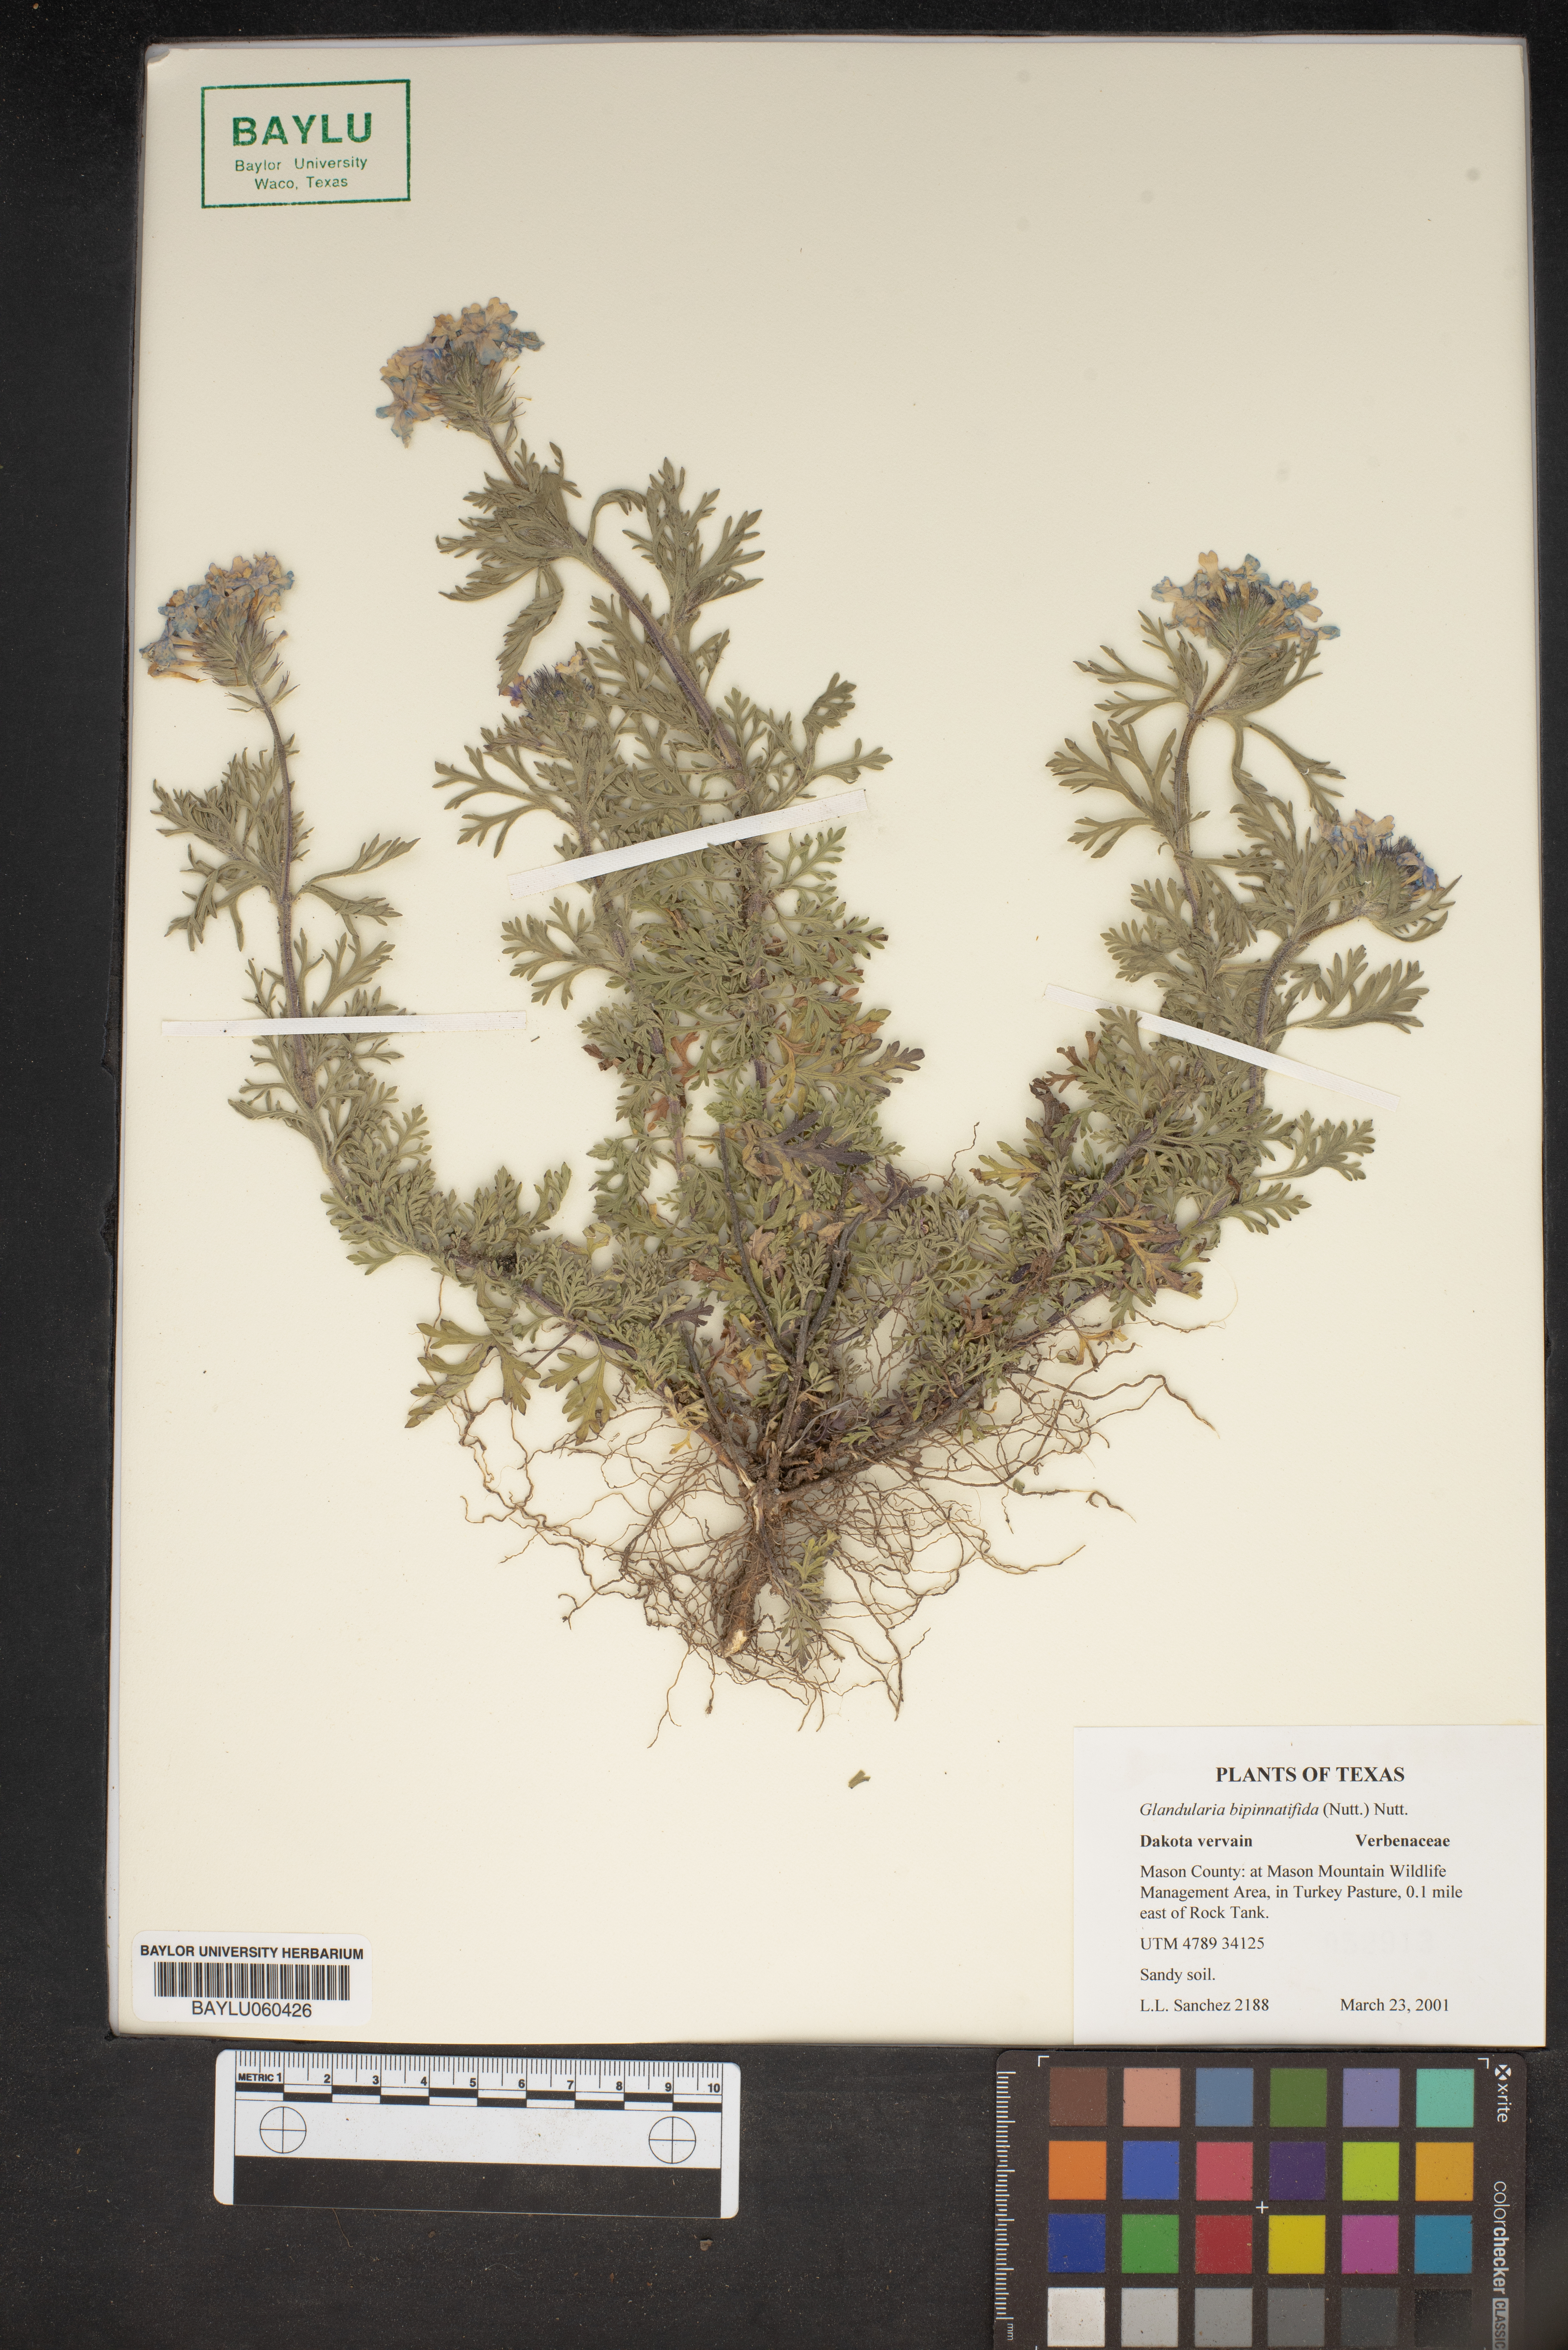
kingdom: Plantae
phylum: Tracheophyta
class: Magnoliopsida
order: Lamiales
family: Verbenaceae
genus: Verbena
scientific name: Verbena bipinnatifida
